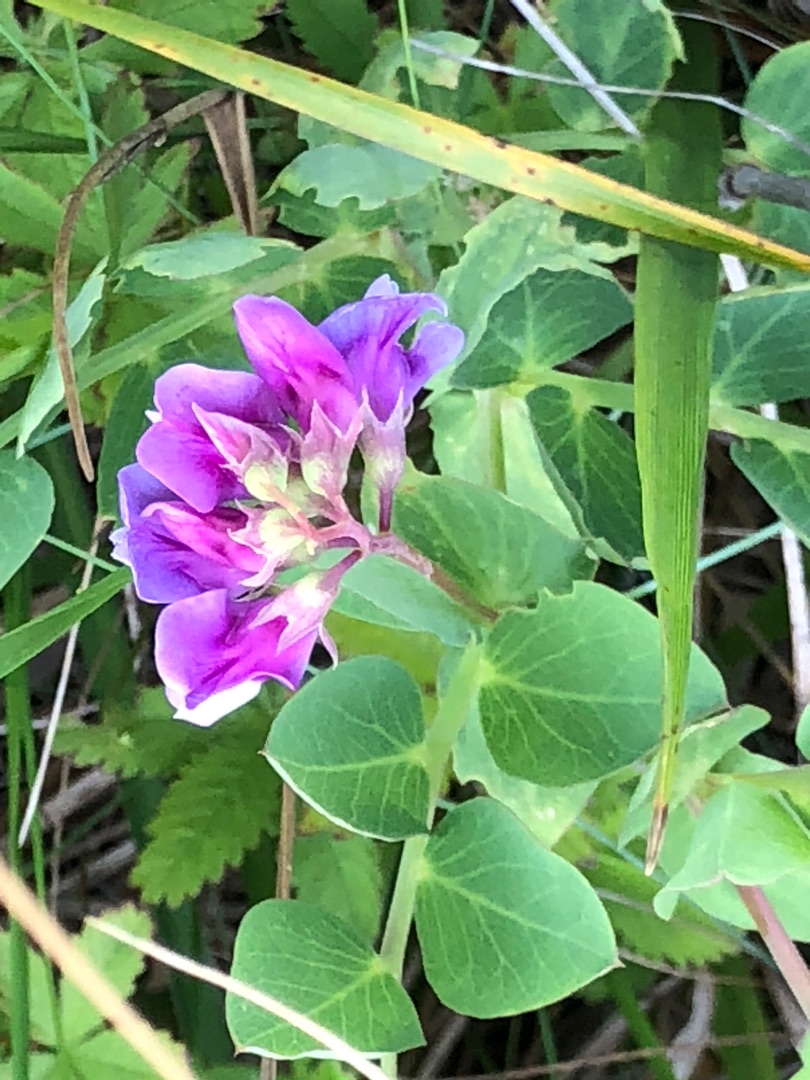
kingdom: Plantae
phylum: Tracheophyta
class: Magnoliopsida
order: Fabales
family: Fabaceae
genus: Lathyrus
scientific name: Lathyrus japonicus
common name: Strand-fladbælg
